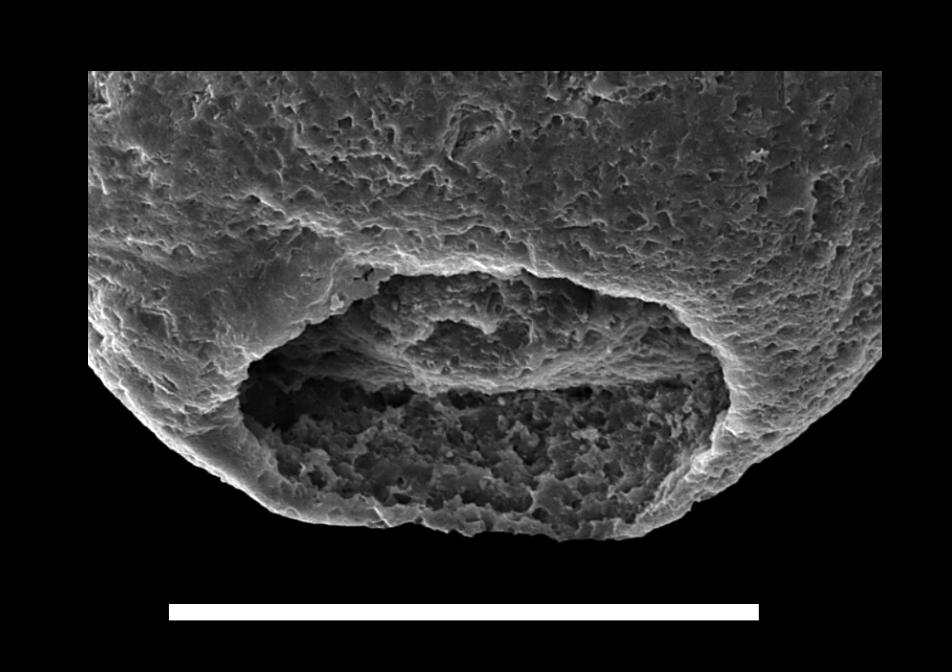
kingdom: Animalia
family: Lagenochitinidae
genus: Lagenochitina
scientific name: Lagenochitina
